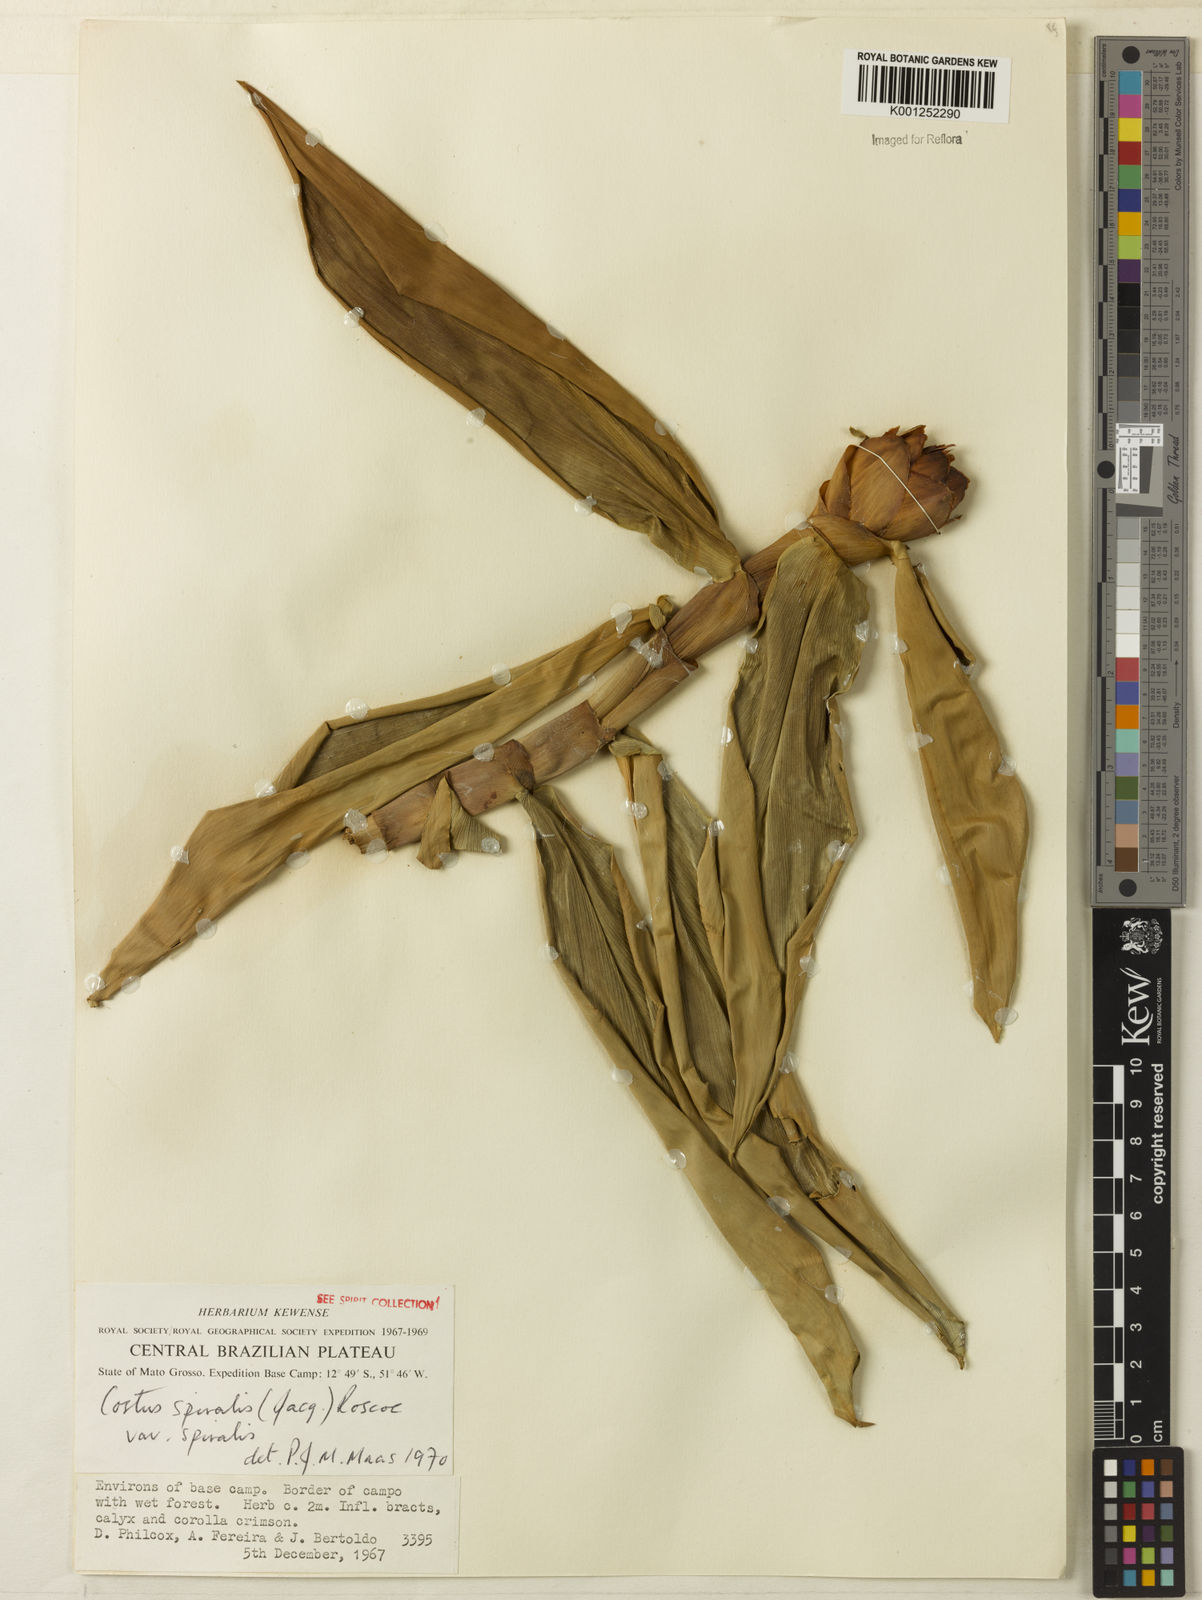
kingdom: Plantae
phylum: Tracheophyta
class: Liliopsida
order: Zingiberales
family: Costaceae
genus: Costus
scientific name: Costus spiralis
